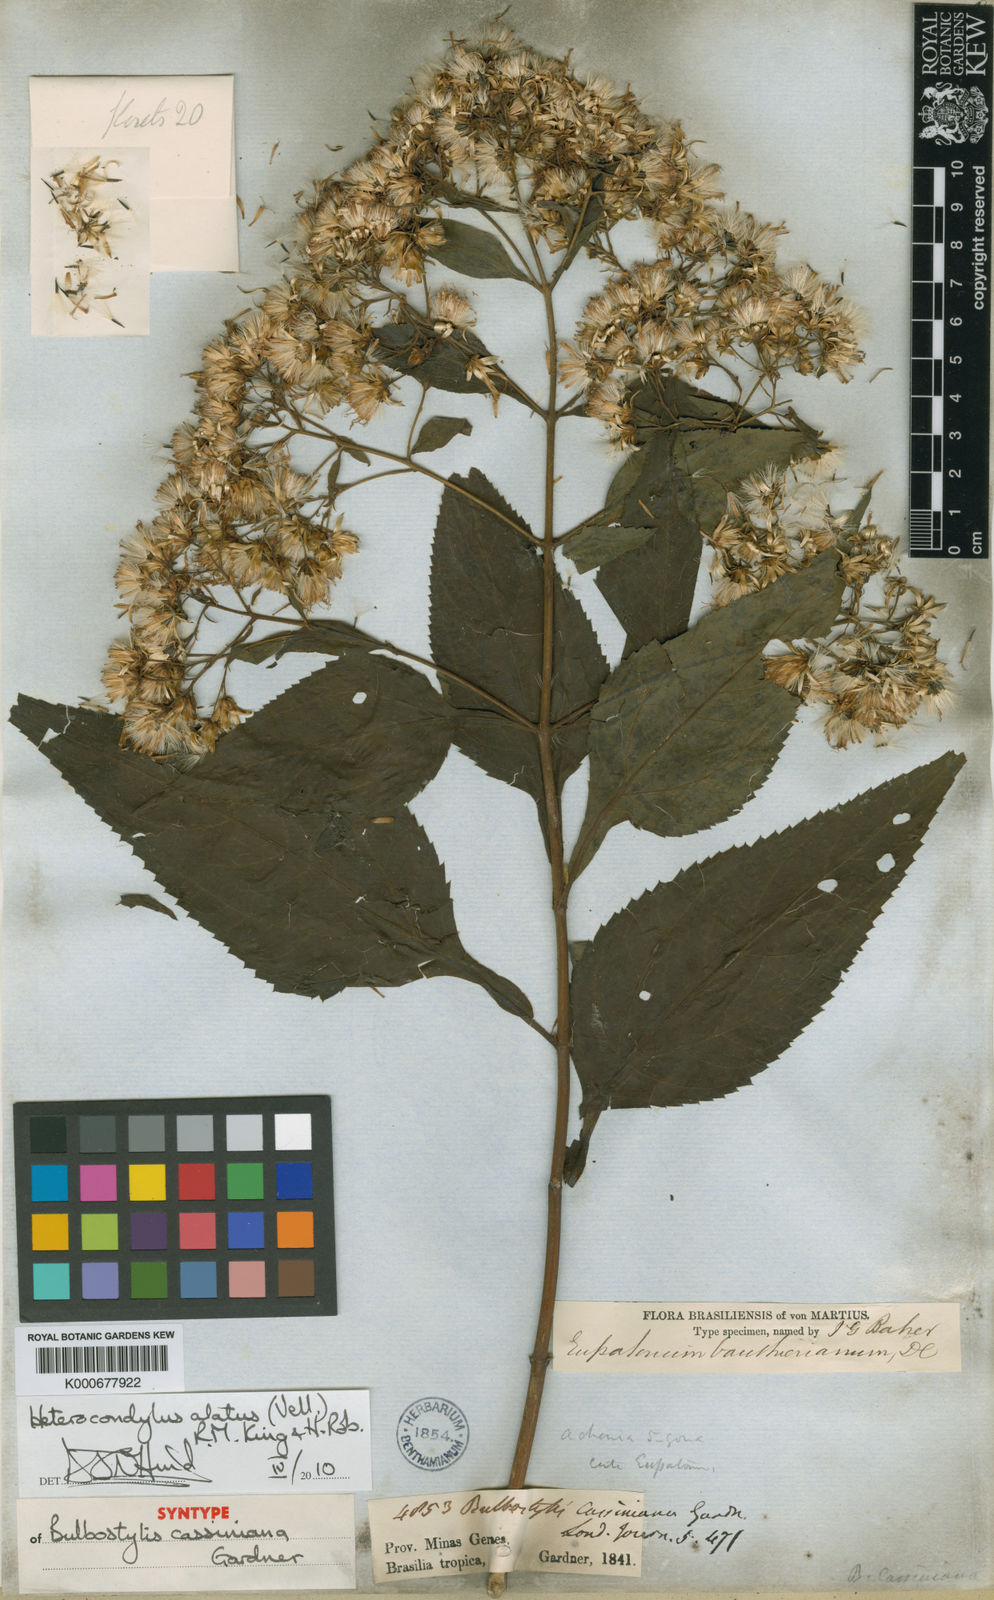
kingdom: Plantae
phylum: Tracheophyta
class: Magnoliopsida
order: Asterales
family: Asteraceae
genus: Heterocondylus
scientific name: Heterocondylus alatus
